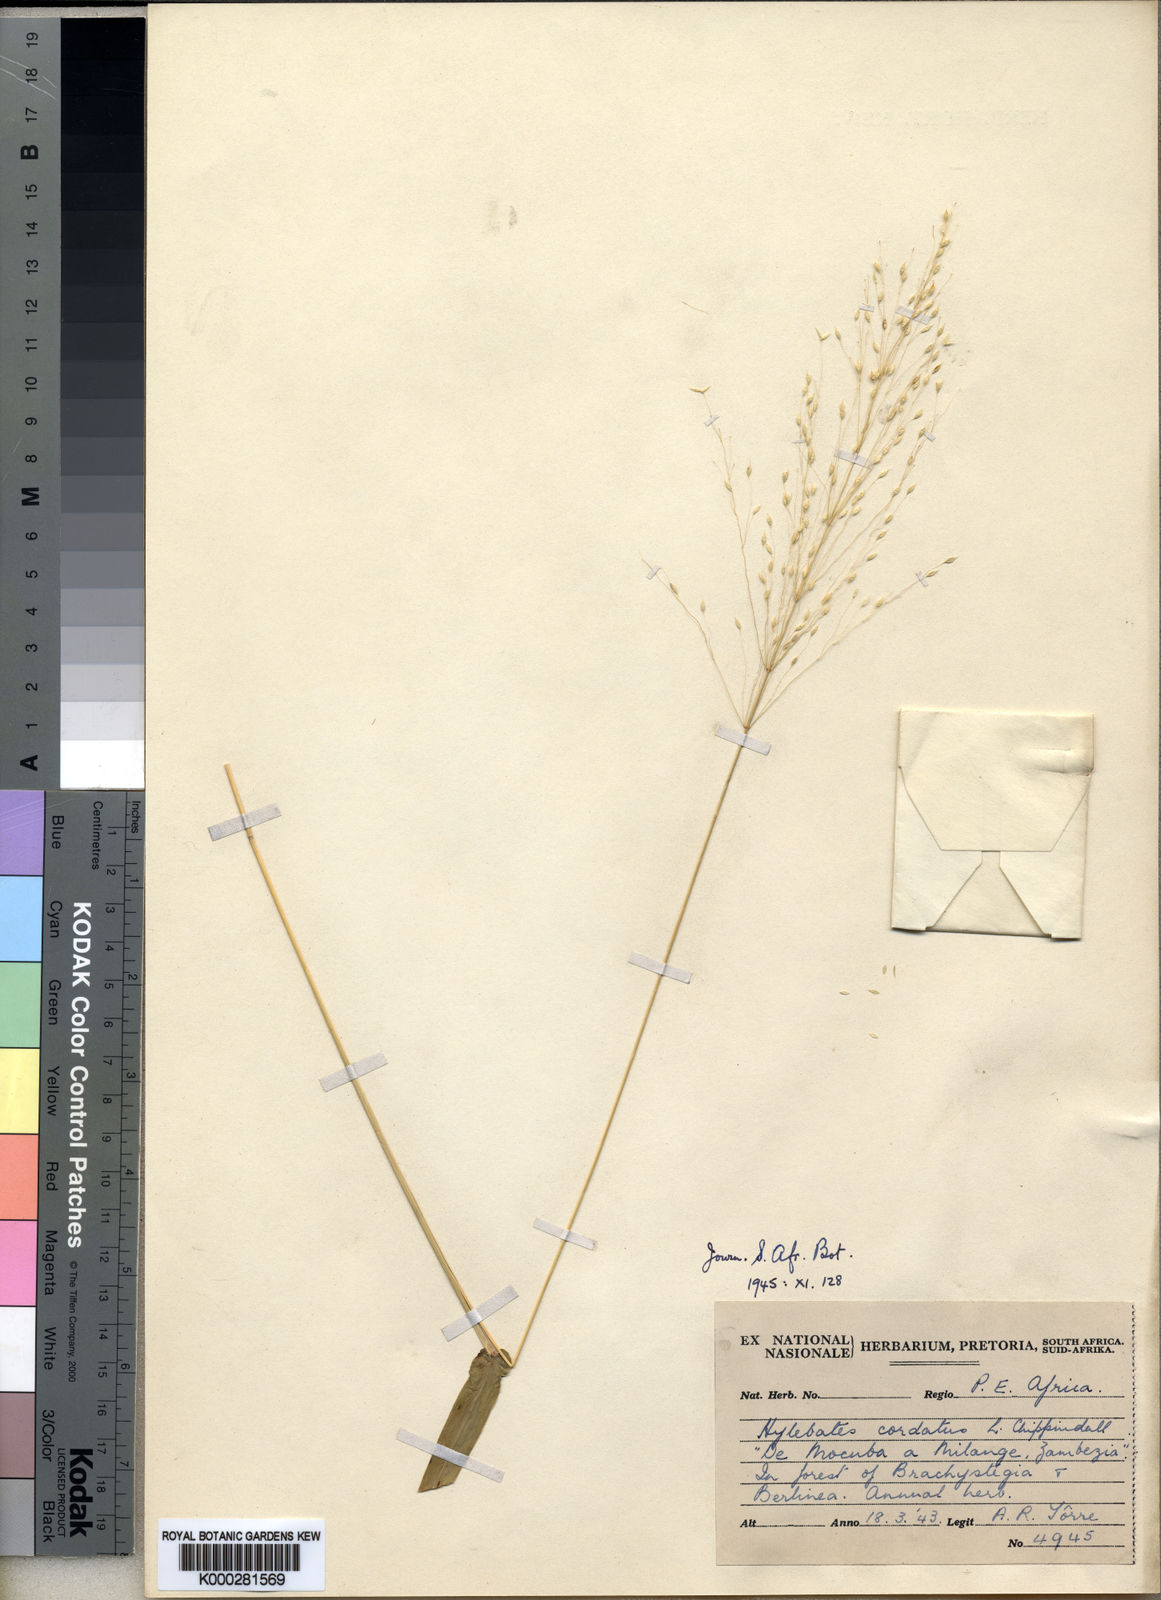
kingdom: Plantae
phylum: Tracheophyta
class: Liliopsida
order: Poales
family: Poaceae
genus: Hylebates
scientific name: Hylebates cordatus
